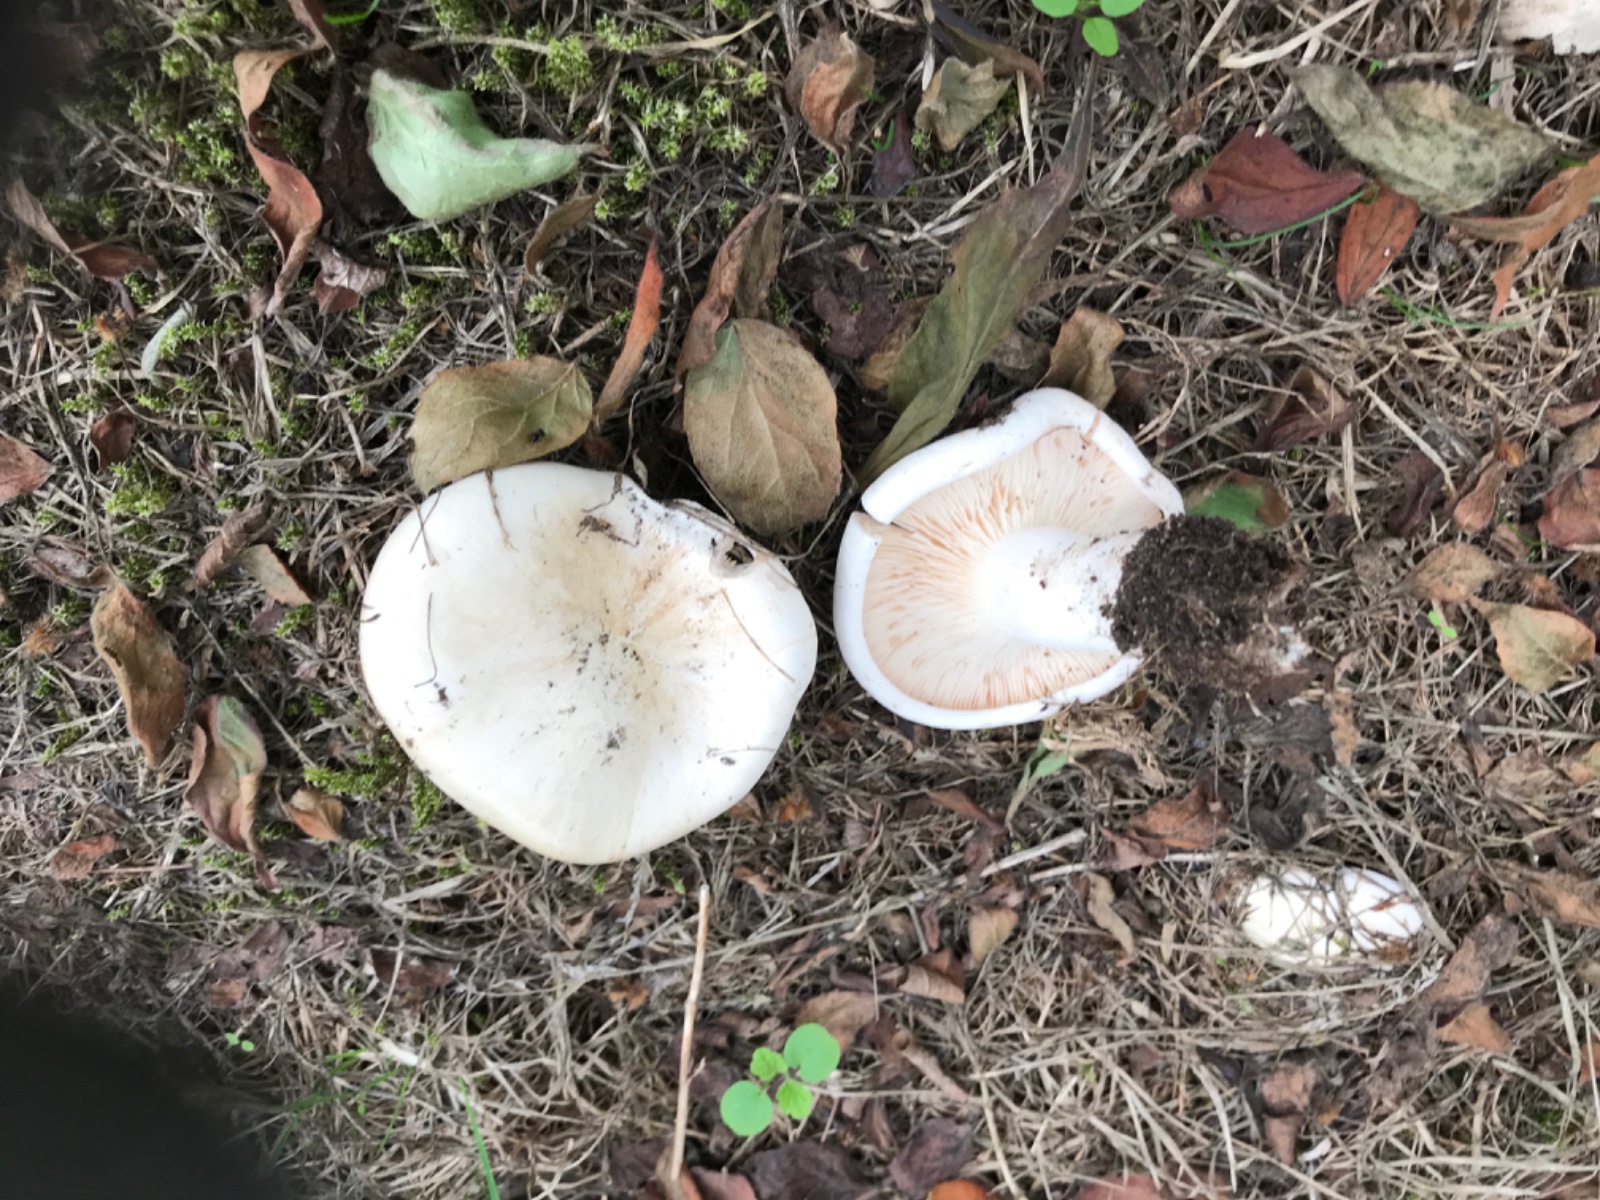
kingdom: Fungi
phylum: Basidiomycota
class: Agaricomycetes
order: Agaricales
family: Entolomataceae
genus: Clitopilus
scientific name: Clitopilus prunulus
